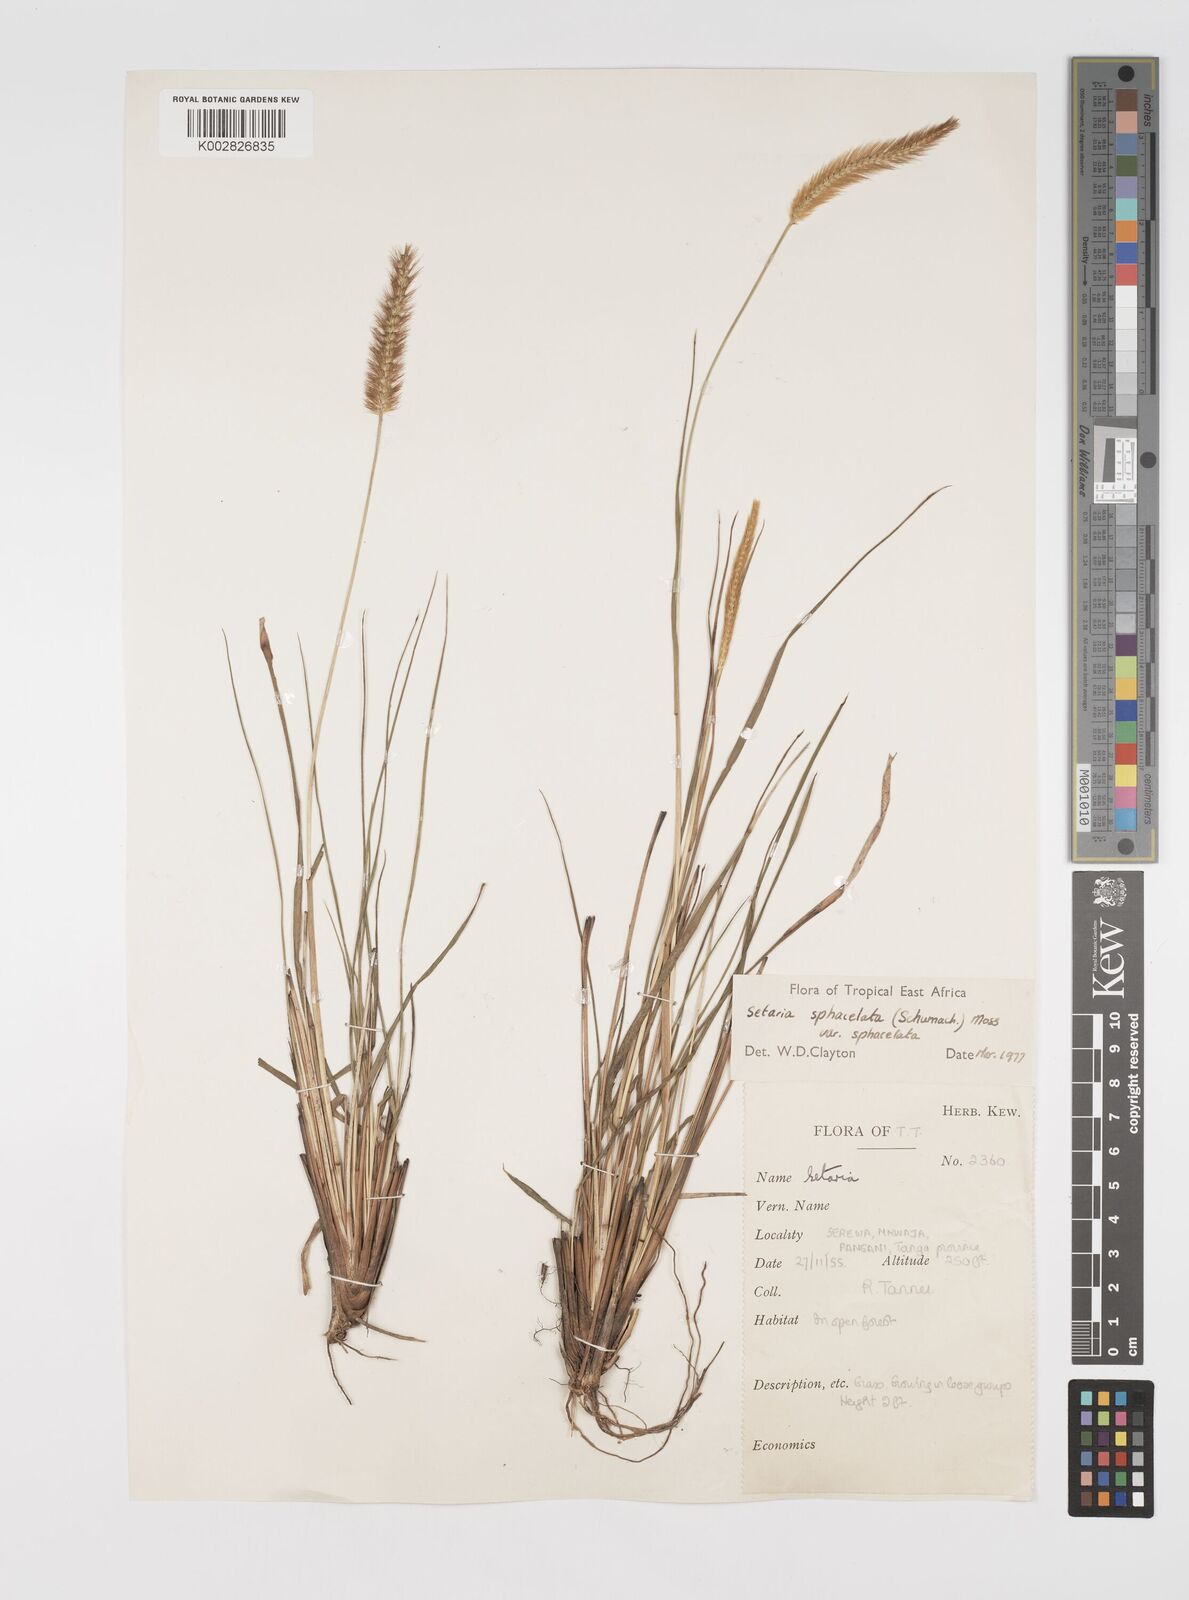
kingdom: Plantae
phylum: Tracheophyta
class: Liliopsida
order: Poales
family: Poaceae
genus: Setaria
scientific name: Setaria sphacelata
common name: African bristlegrass
